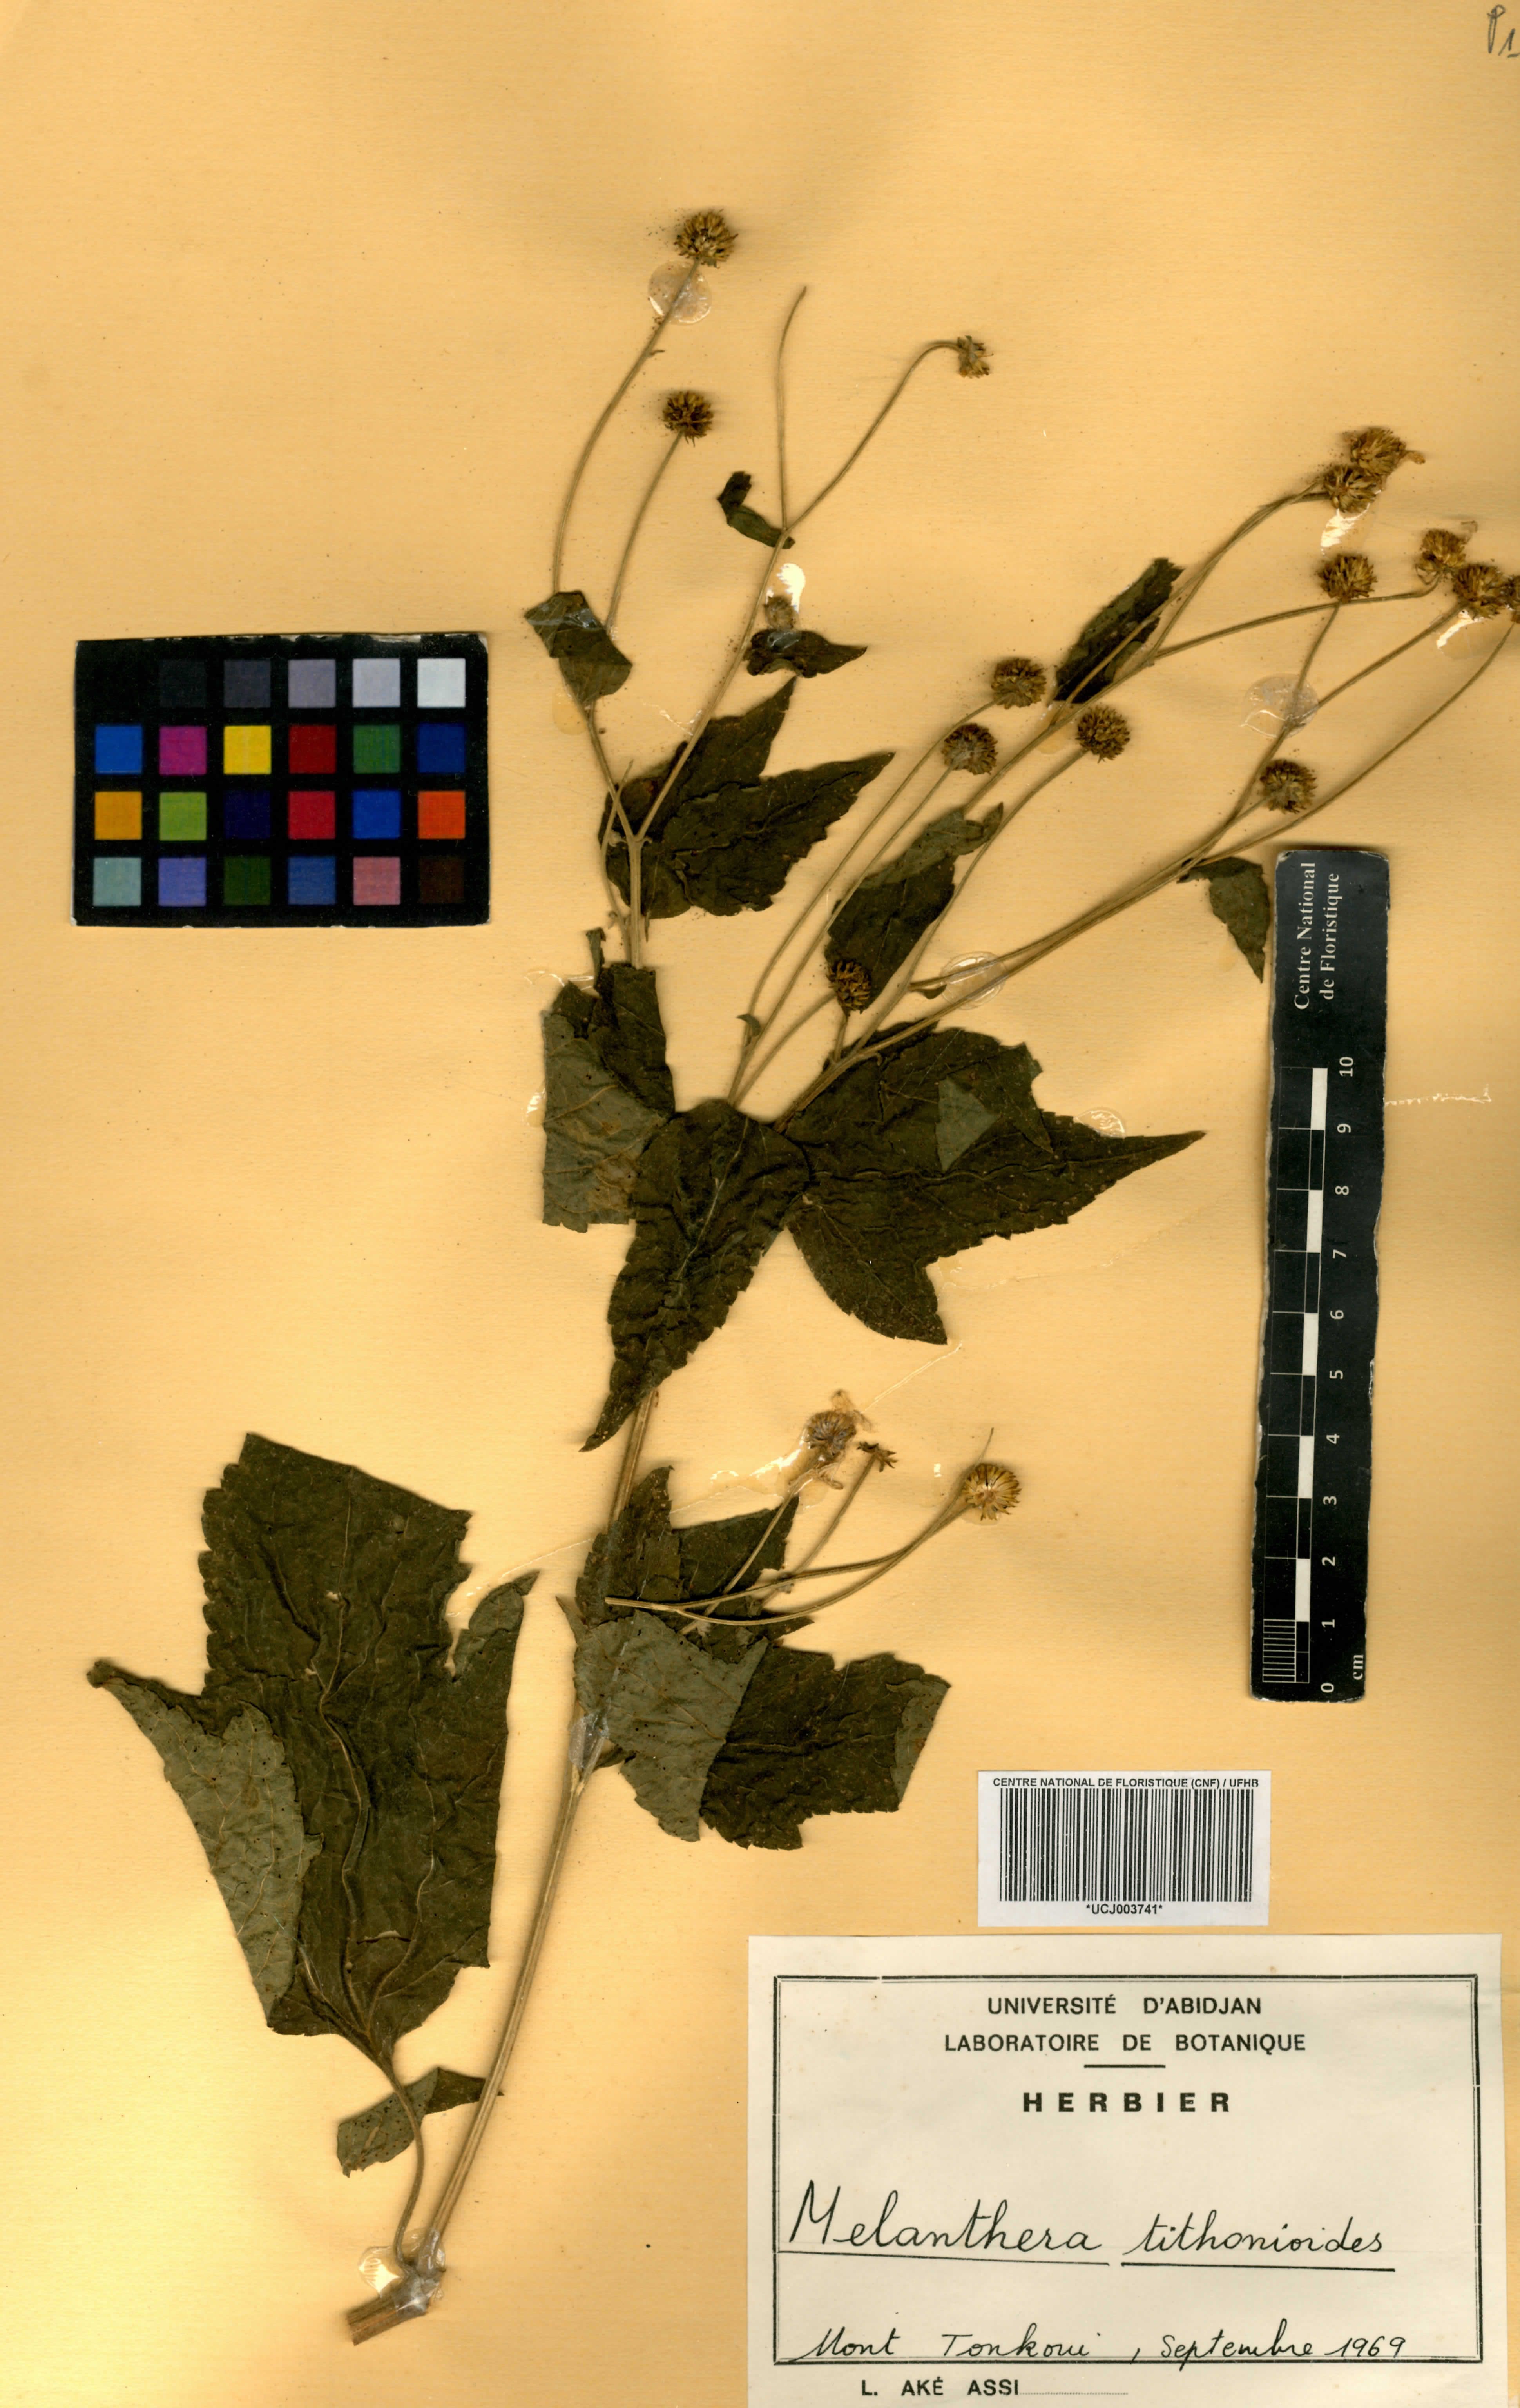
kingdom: Plantae
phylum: Tracheophyta
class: Magnoliopsida
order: Asterales
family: Asteraceae
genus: Lipotriche
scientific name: Lipotriche tithonioides
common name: Simandou daisy
